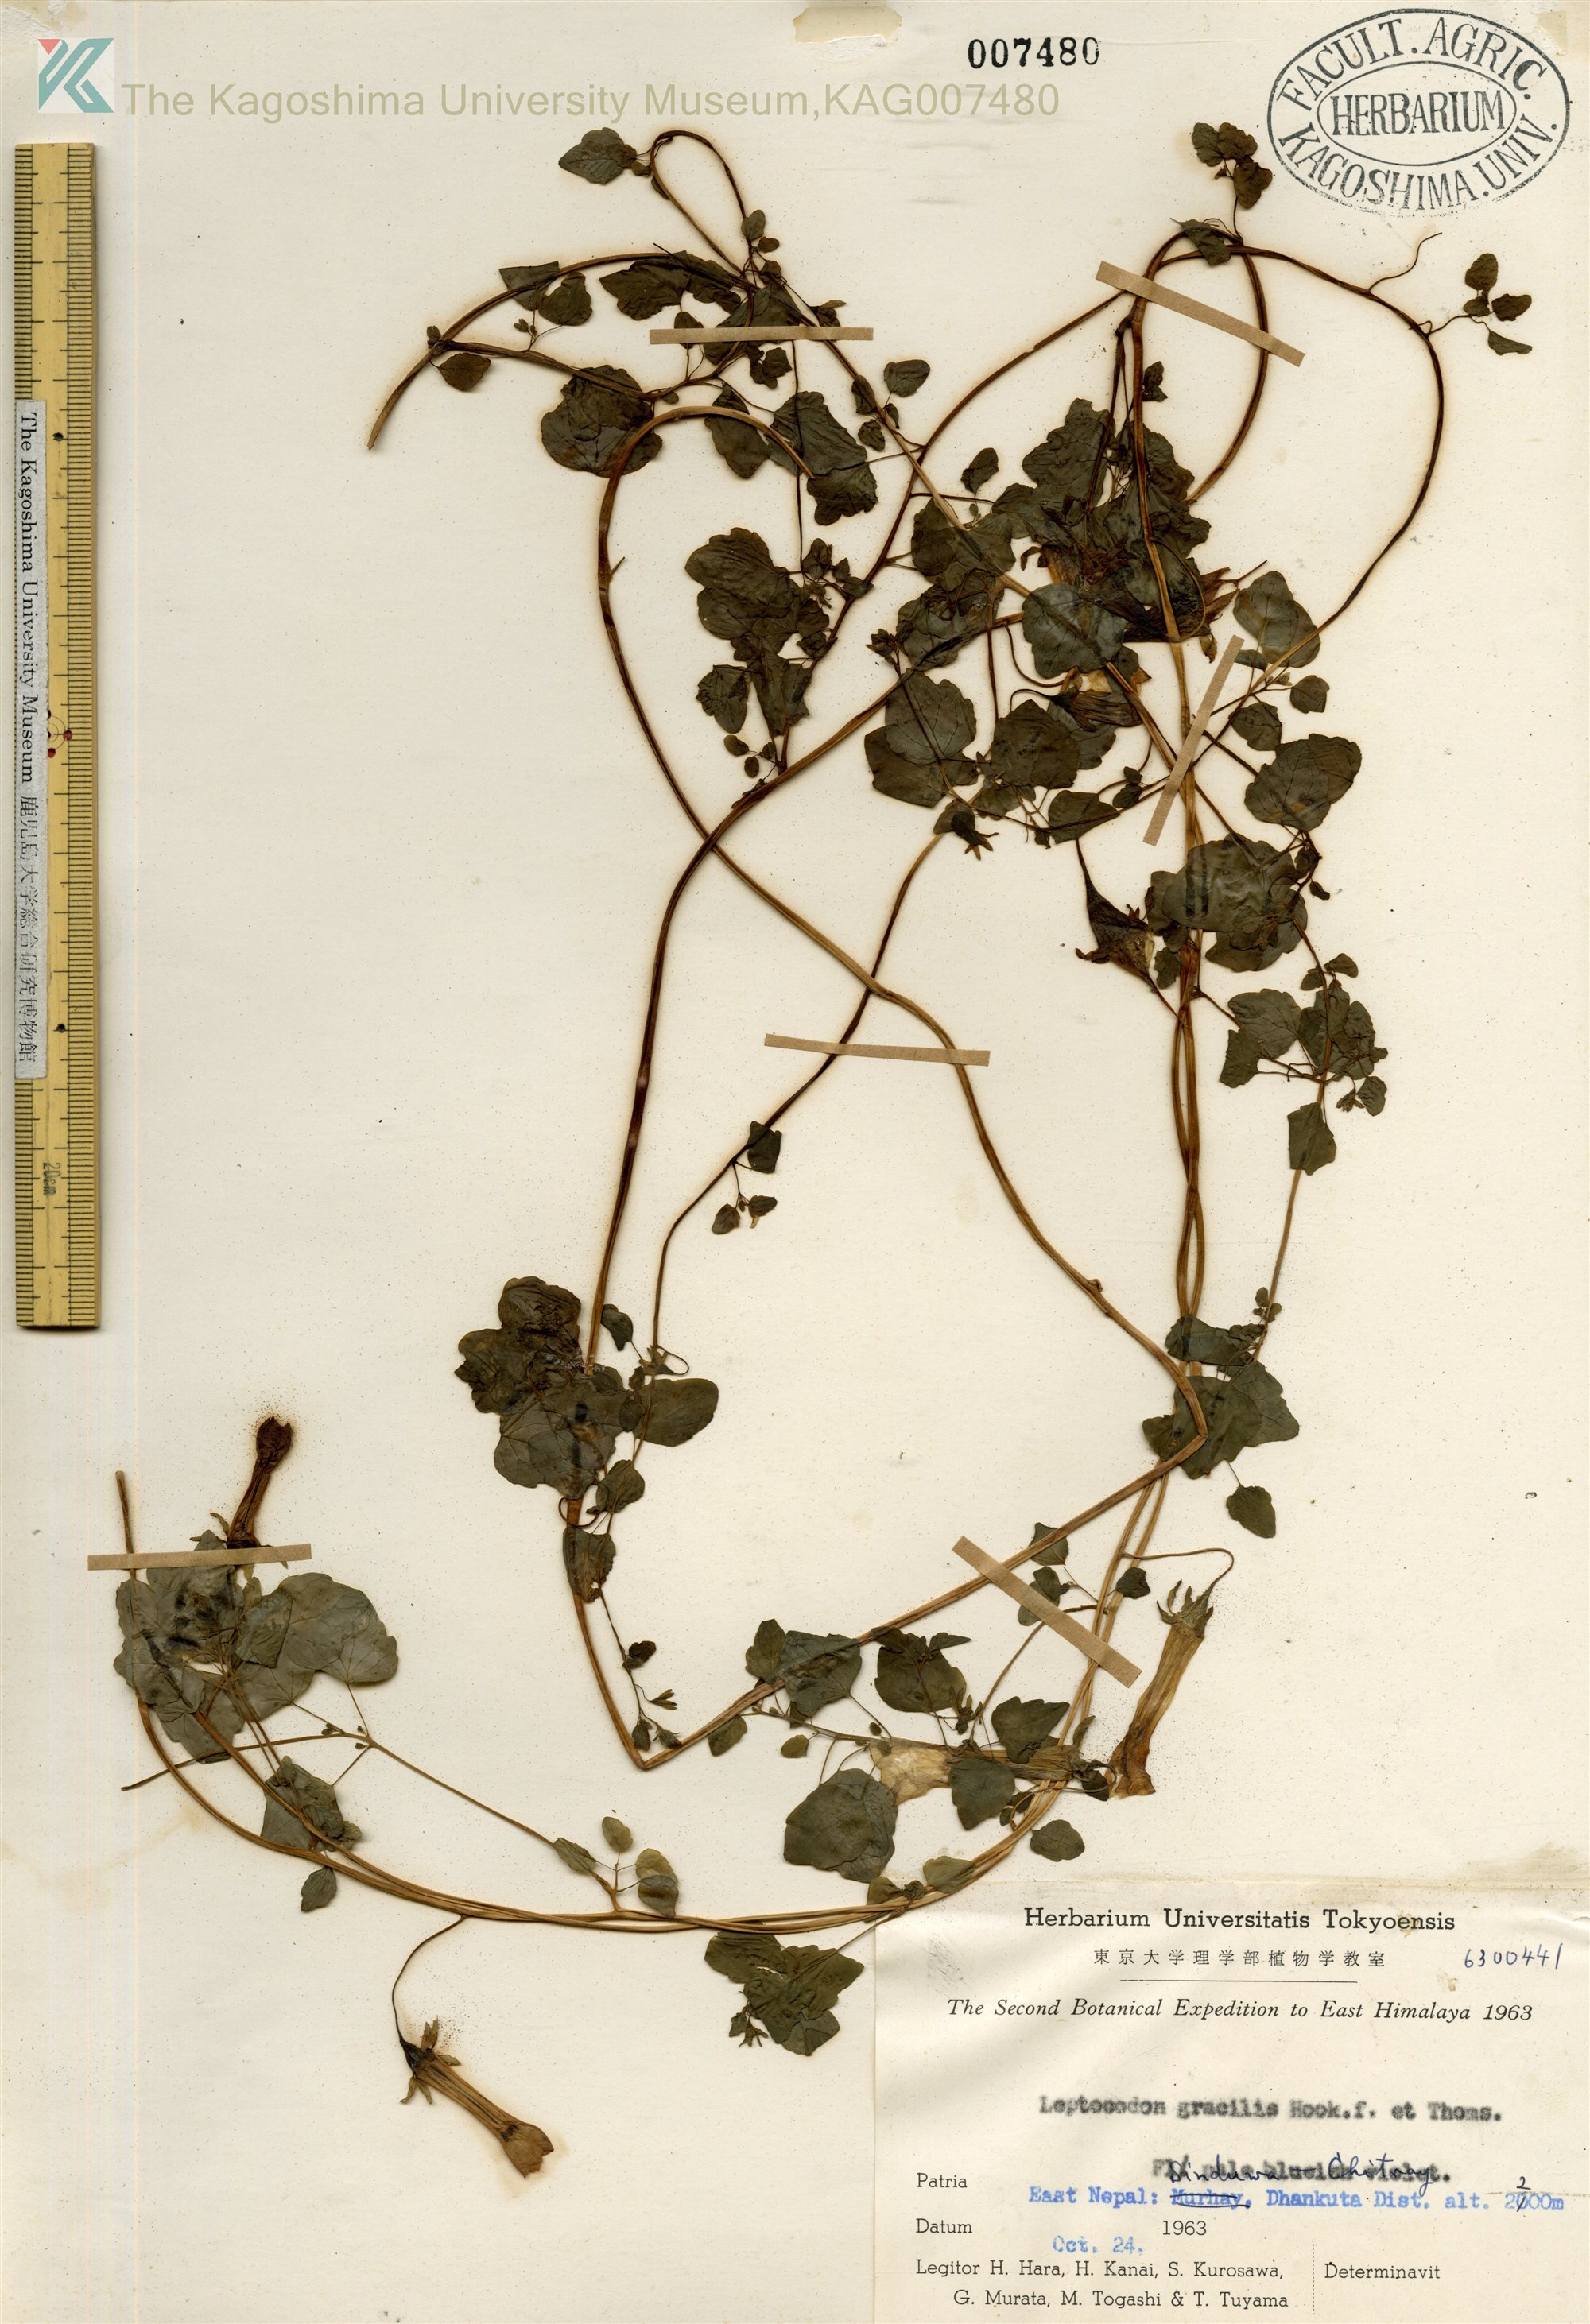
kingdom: Plantae
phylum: Tracheophyta
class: Magnoliopsida
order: Asterales
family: Campanulaceae
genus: Codonopsis
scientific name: Codonopsis Leptocodon gracilis
